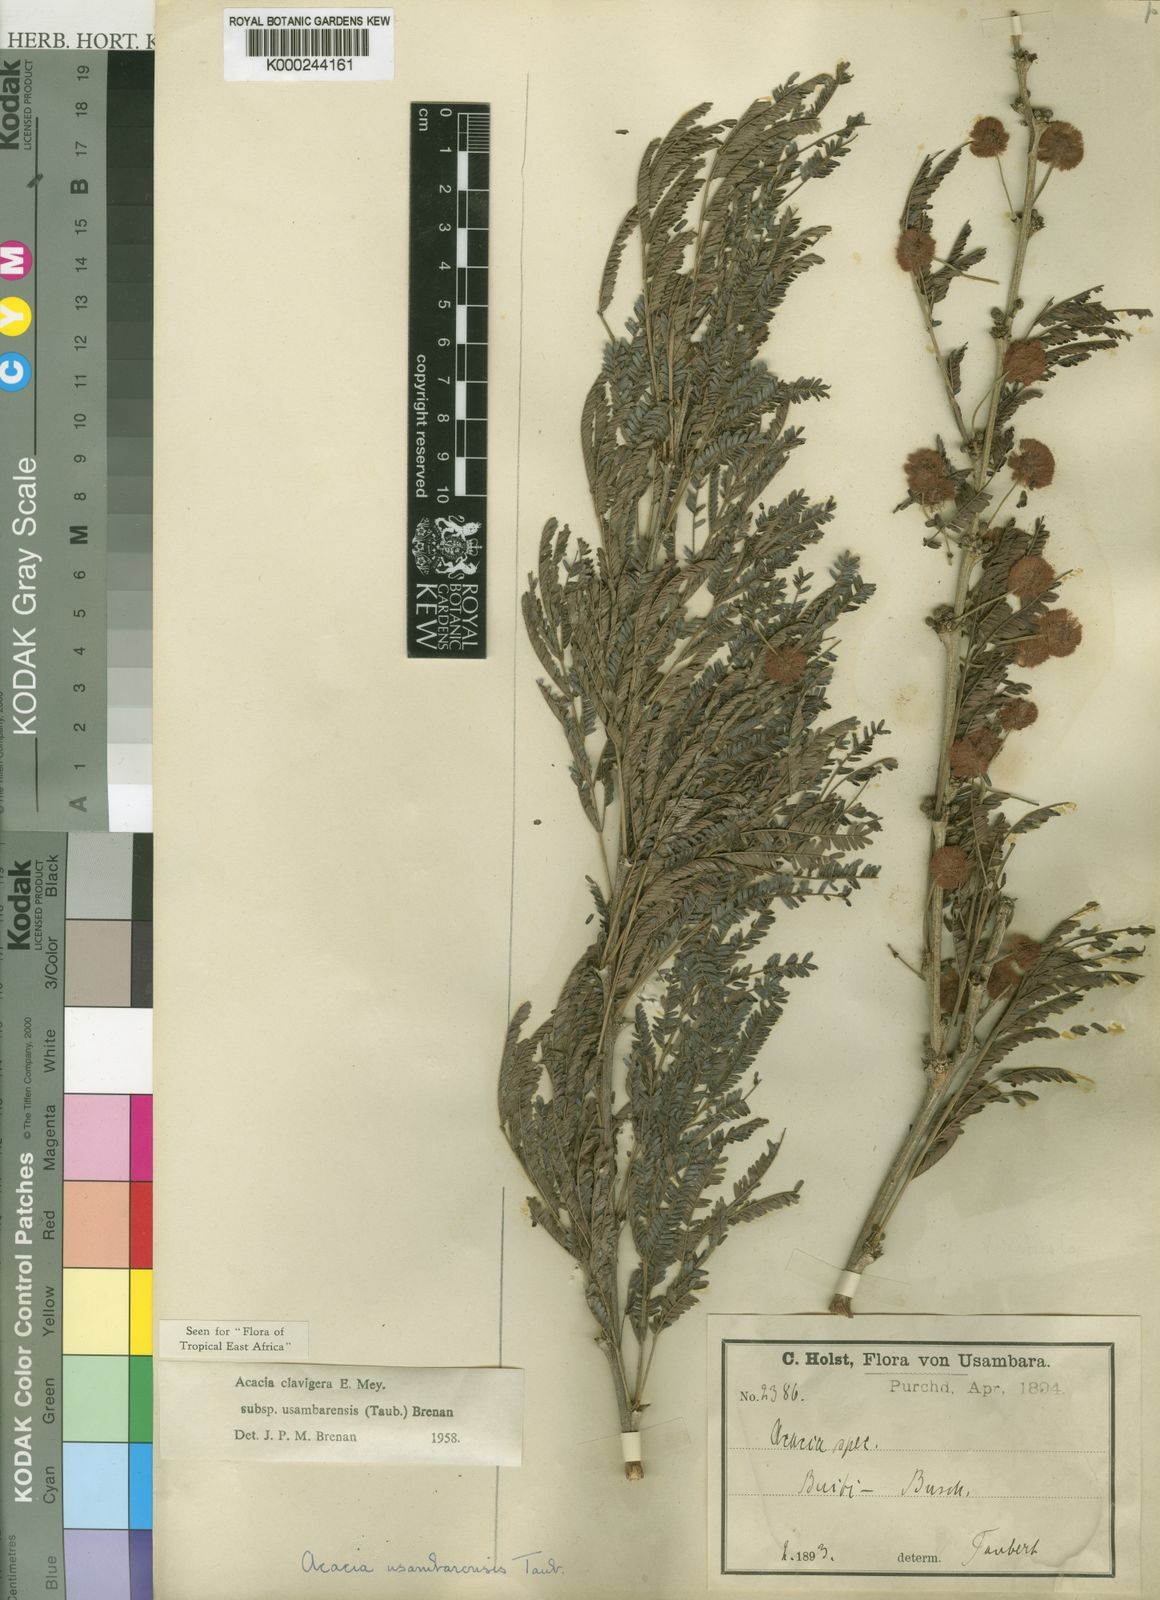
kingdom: Plantae
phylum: Tracheophyta
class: Magnoliopsida
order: Fabales
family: Fabaceae
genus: Vachellia
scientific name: Vachellia robusta
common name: Ankle thorn
